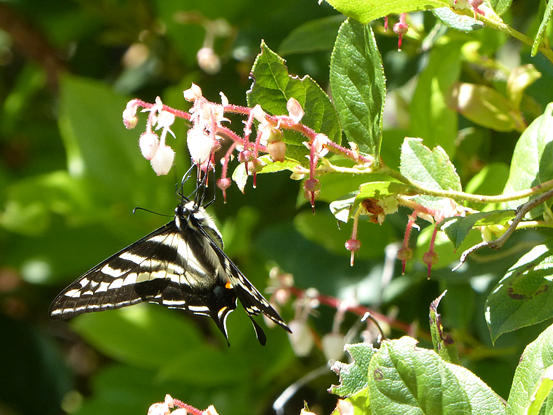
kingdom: Animalia
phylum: Arthropoda
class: Insecta
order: Lepidoptera
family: Papilionidae
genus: Pterourus
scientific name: Pterourus eurymedon
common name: Pale Swallowtail
